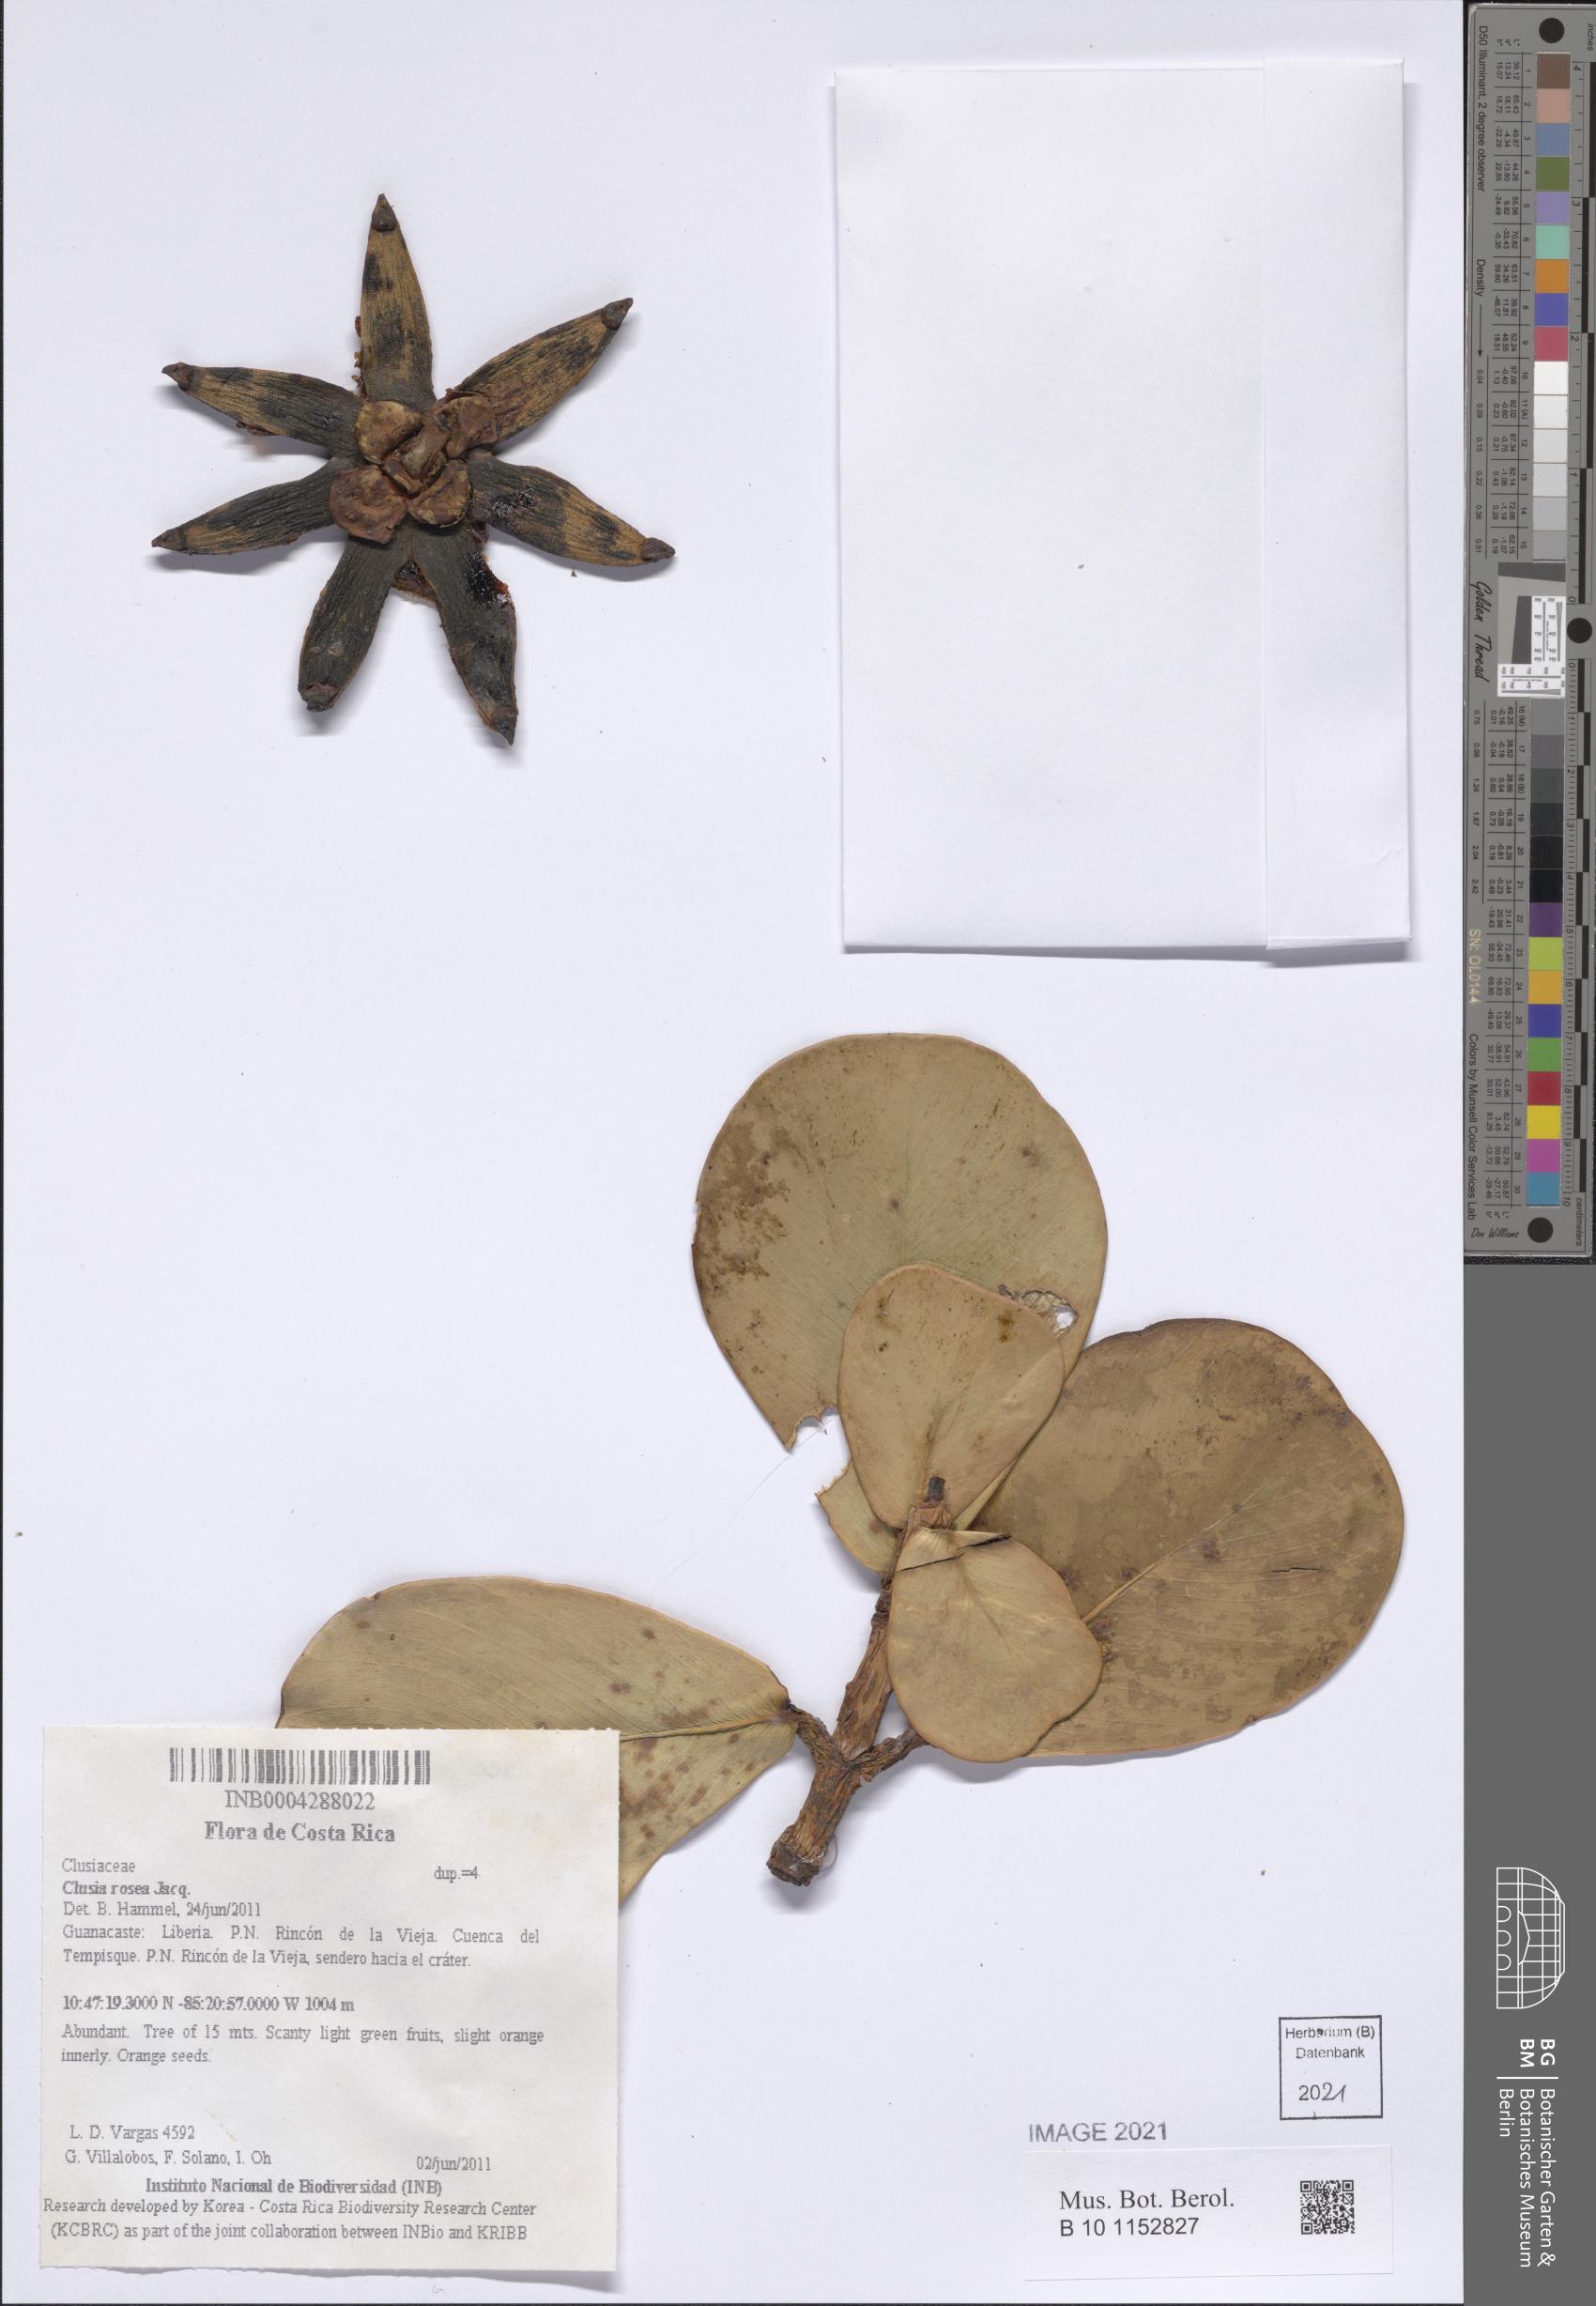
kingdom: Plantae
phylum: Tracheophyta
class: Magnoliopsida
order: Malpighiales
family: Clusiaceae
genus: Clusia
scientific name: Clusia rosea
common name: Scotch attorney
